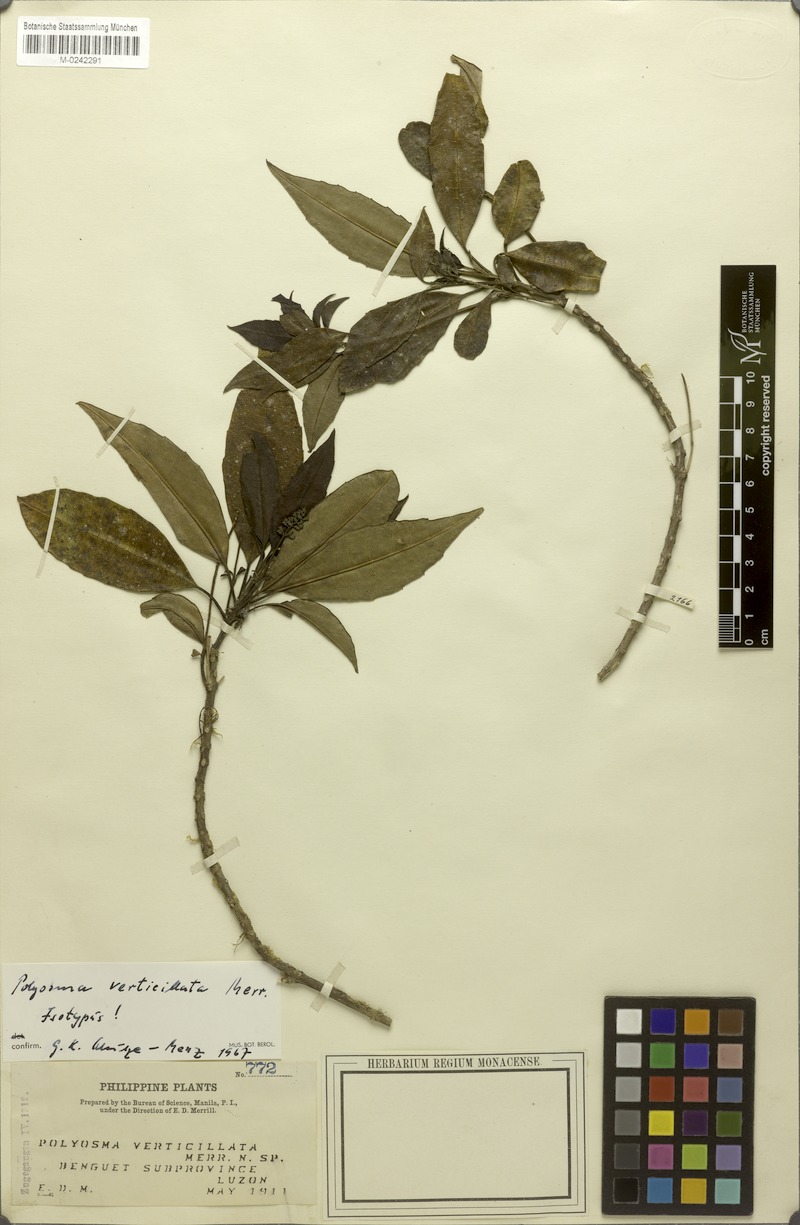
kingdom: Plantae
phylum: Tracheophyta
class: Magnoliopsida
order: Escalloniales
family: Escalloniaceae
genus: Polyosma
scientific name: Polyosma verticillata
